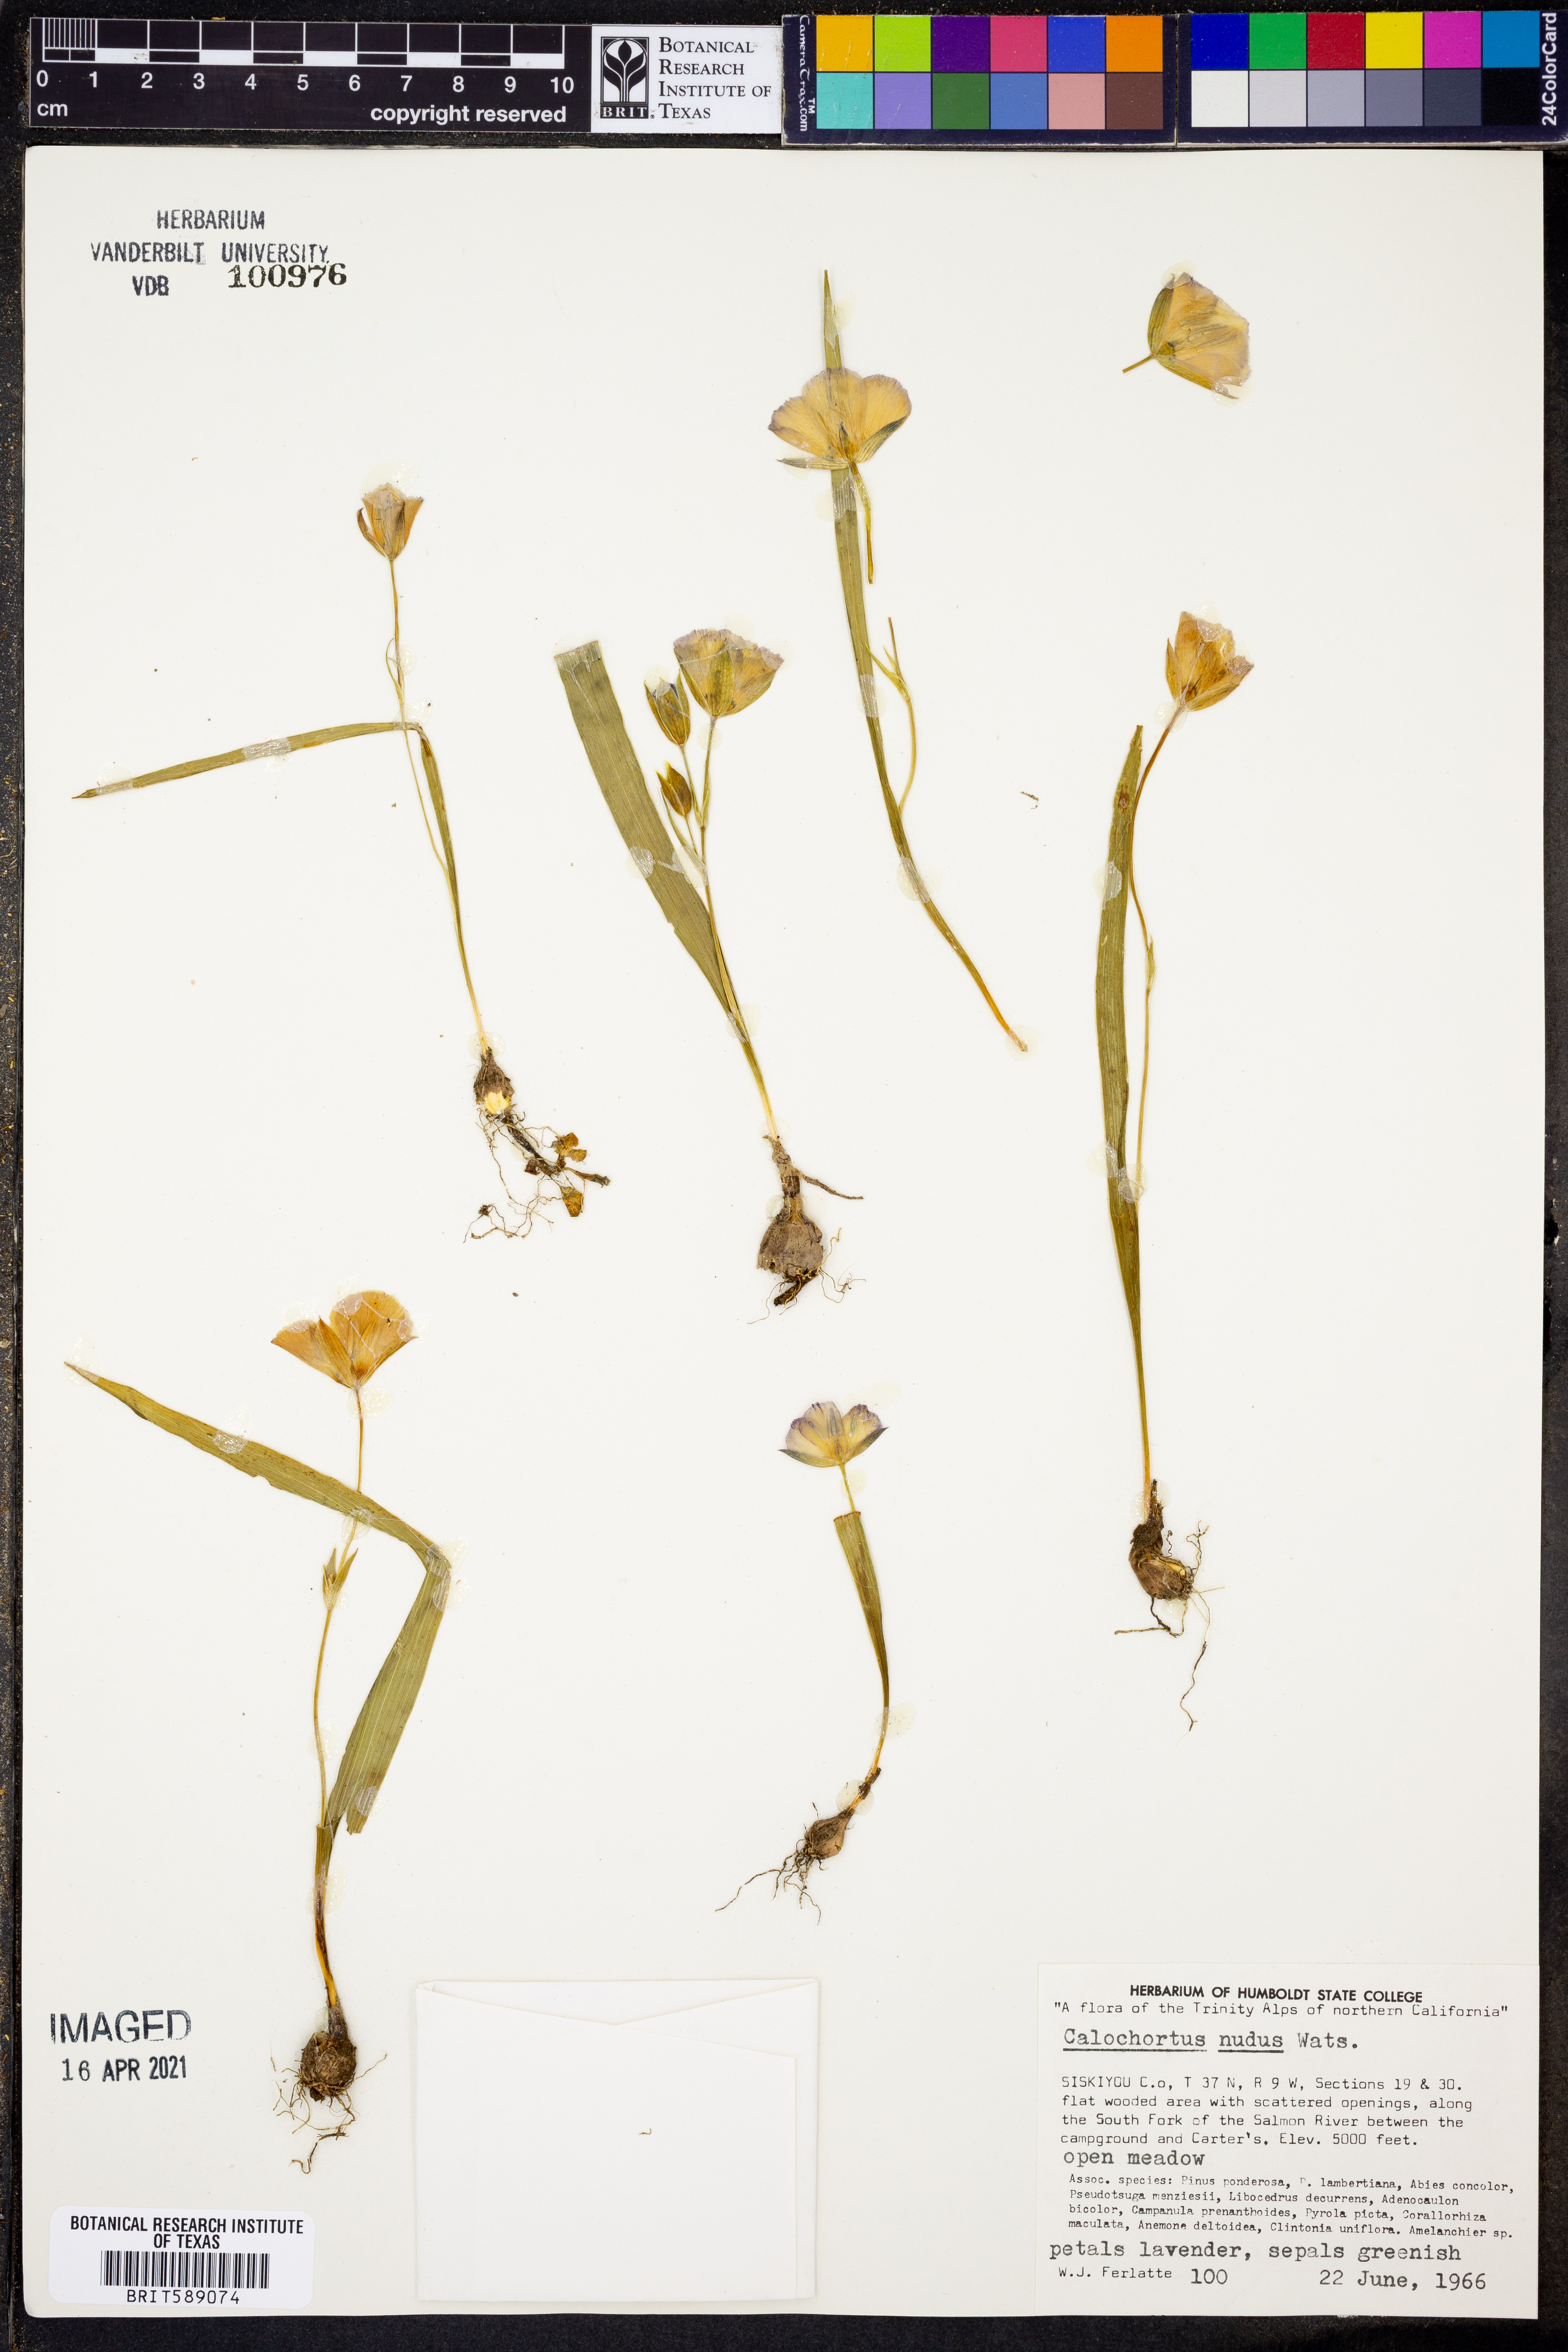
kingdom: Plantae
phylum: Tracheophyta
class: Liliopsida
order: Liliales
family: Liliaceae
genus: Calochortus
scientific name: Calochortus nudus
